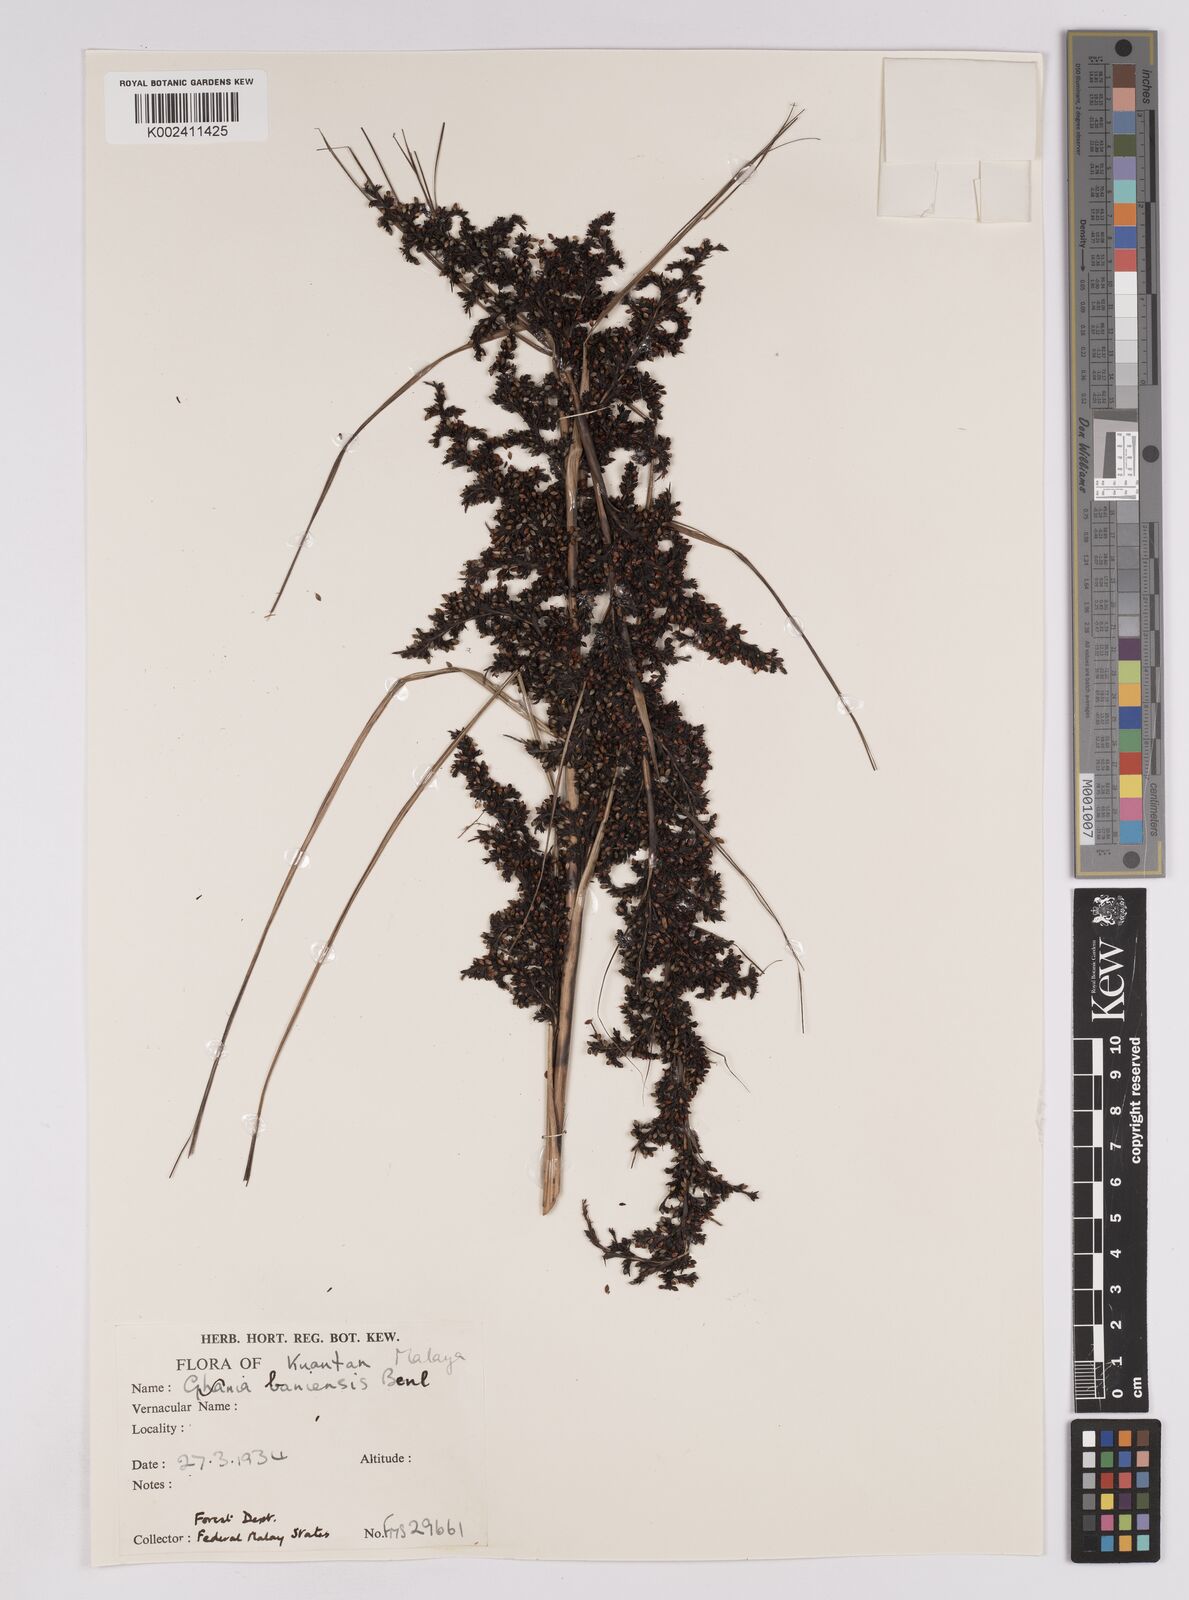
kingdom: Plantae
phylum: Tracheophyta
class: Liliopsida
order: Poales
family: Cyperaceae
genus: Gahnia
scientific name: Gahnia baniensis
